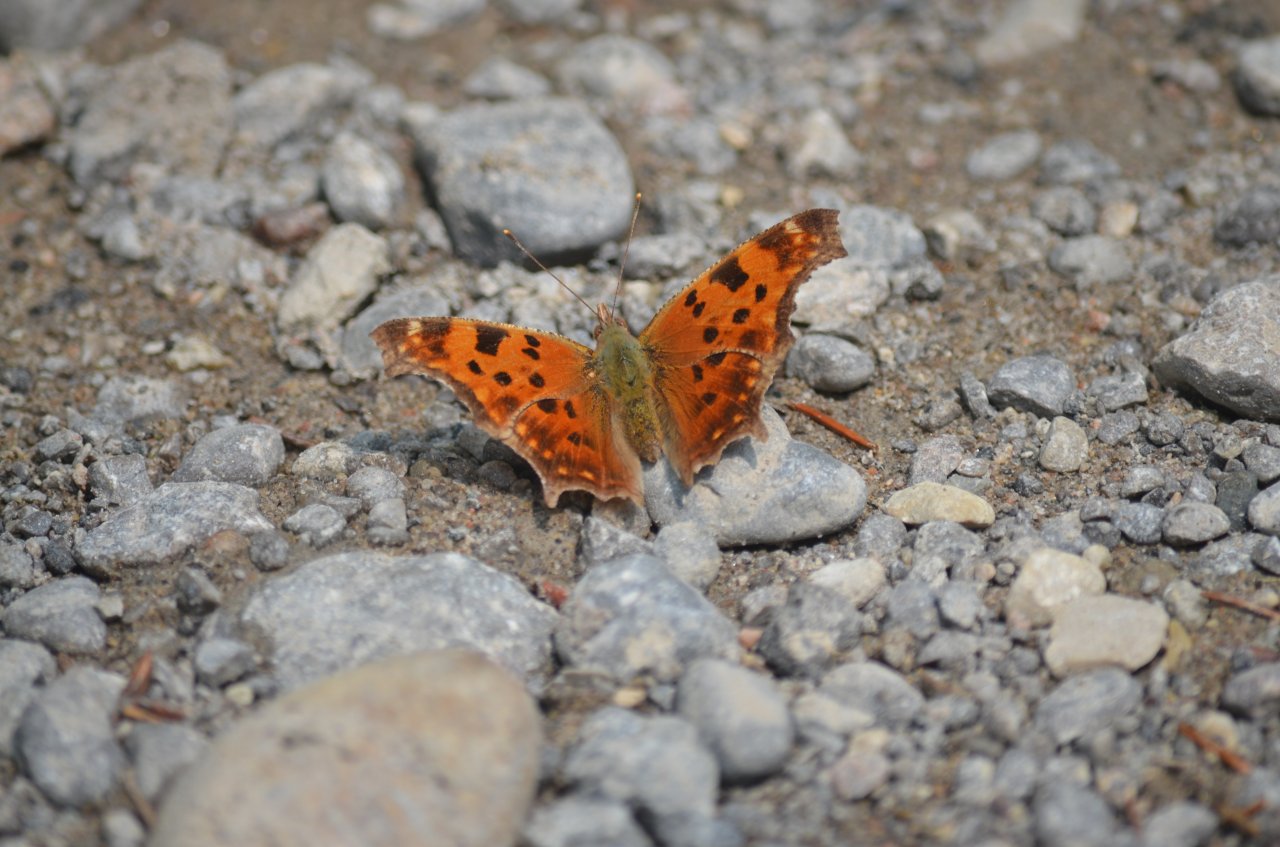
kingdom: Animalia
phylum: Arthropoda
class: Insecta
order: Lepidoptera
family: Nymphalidae
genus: Polygonia
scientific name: Polygonia comma
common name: Eastern Comma
